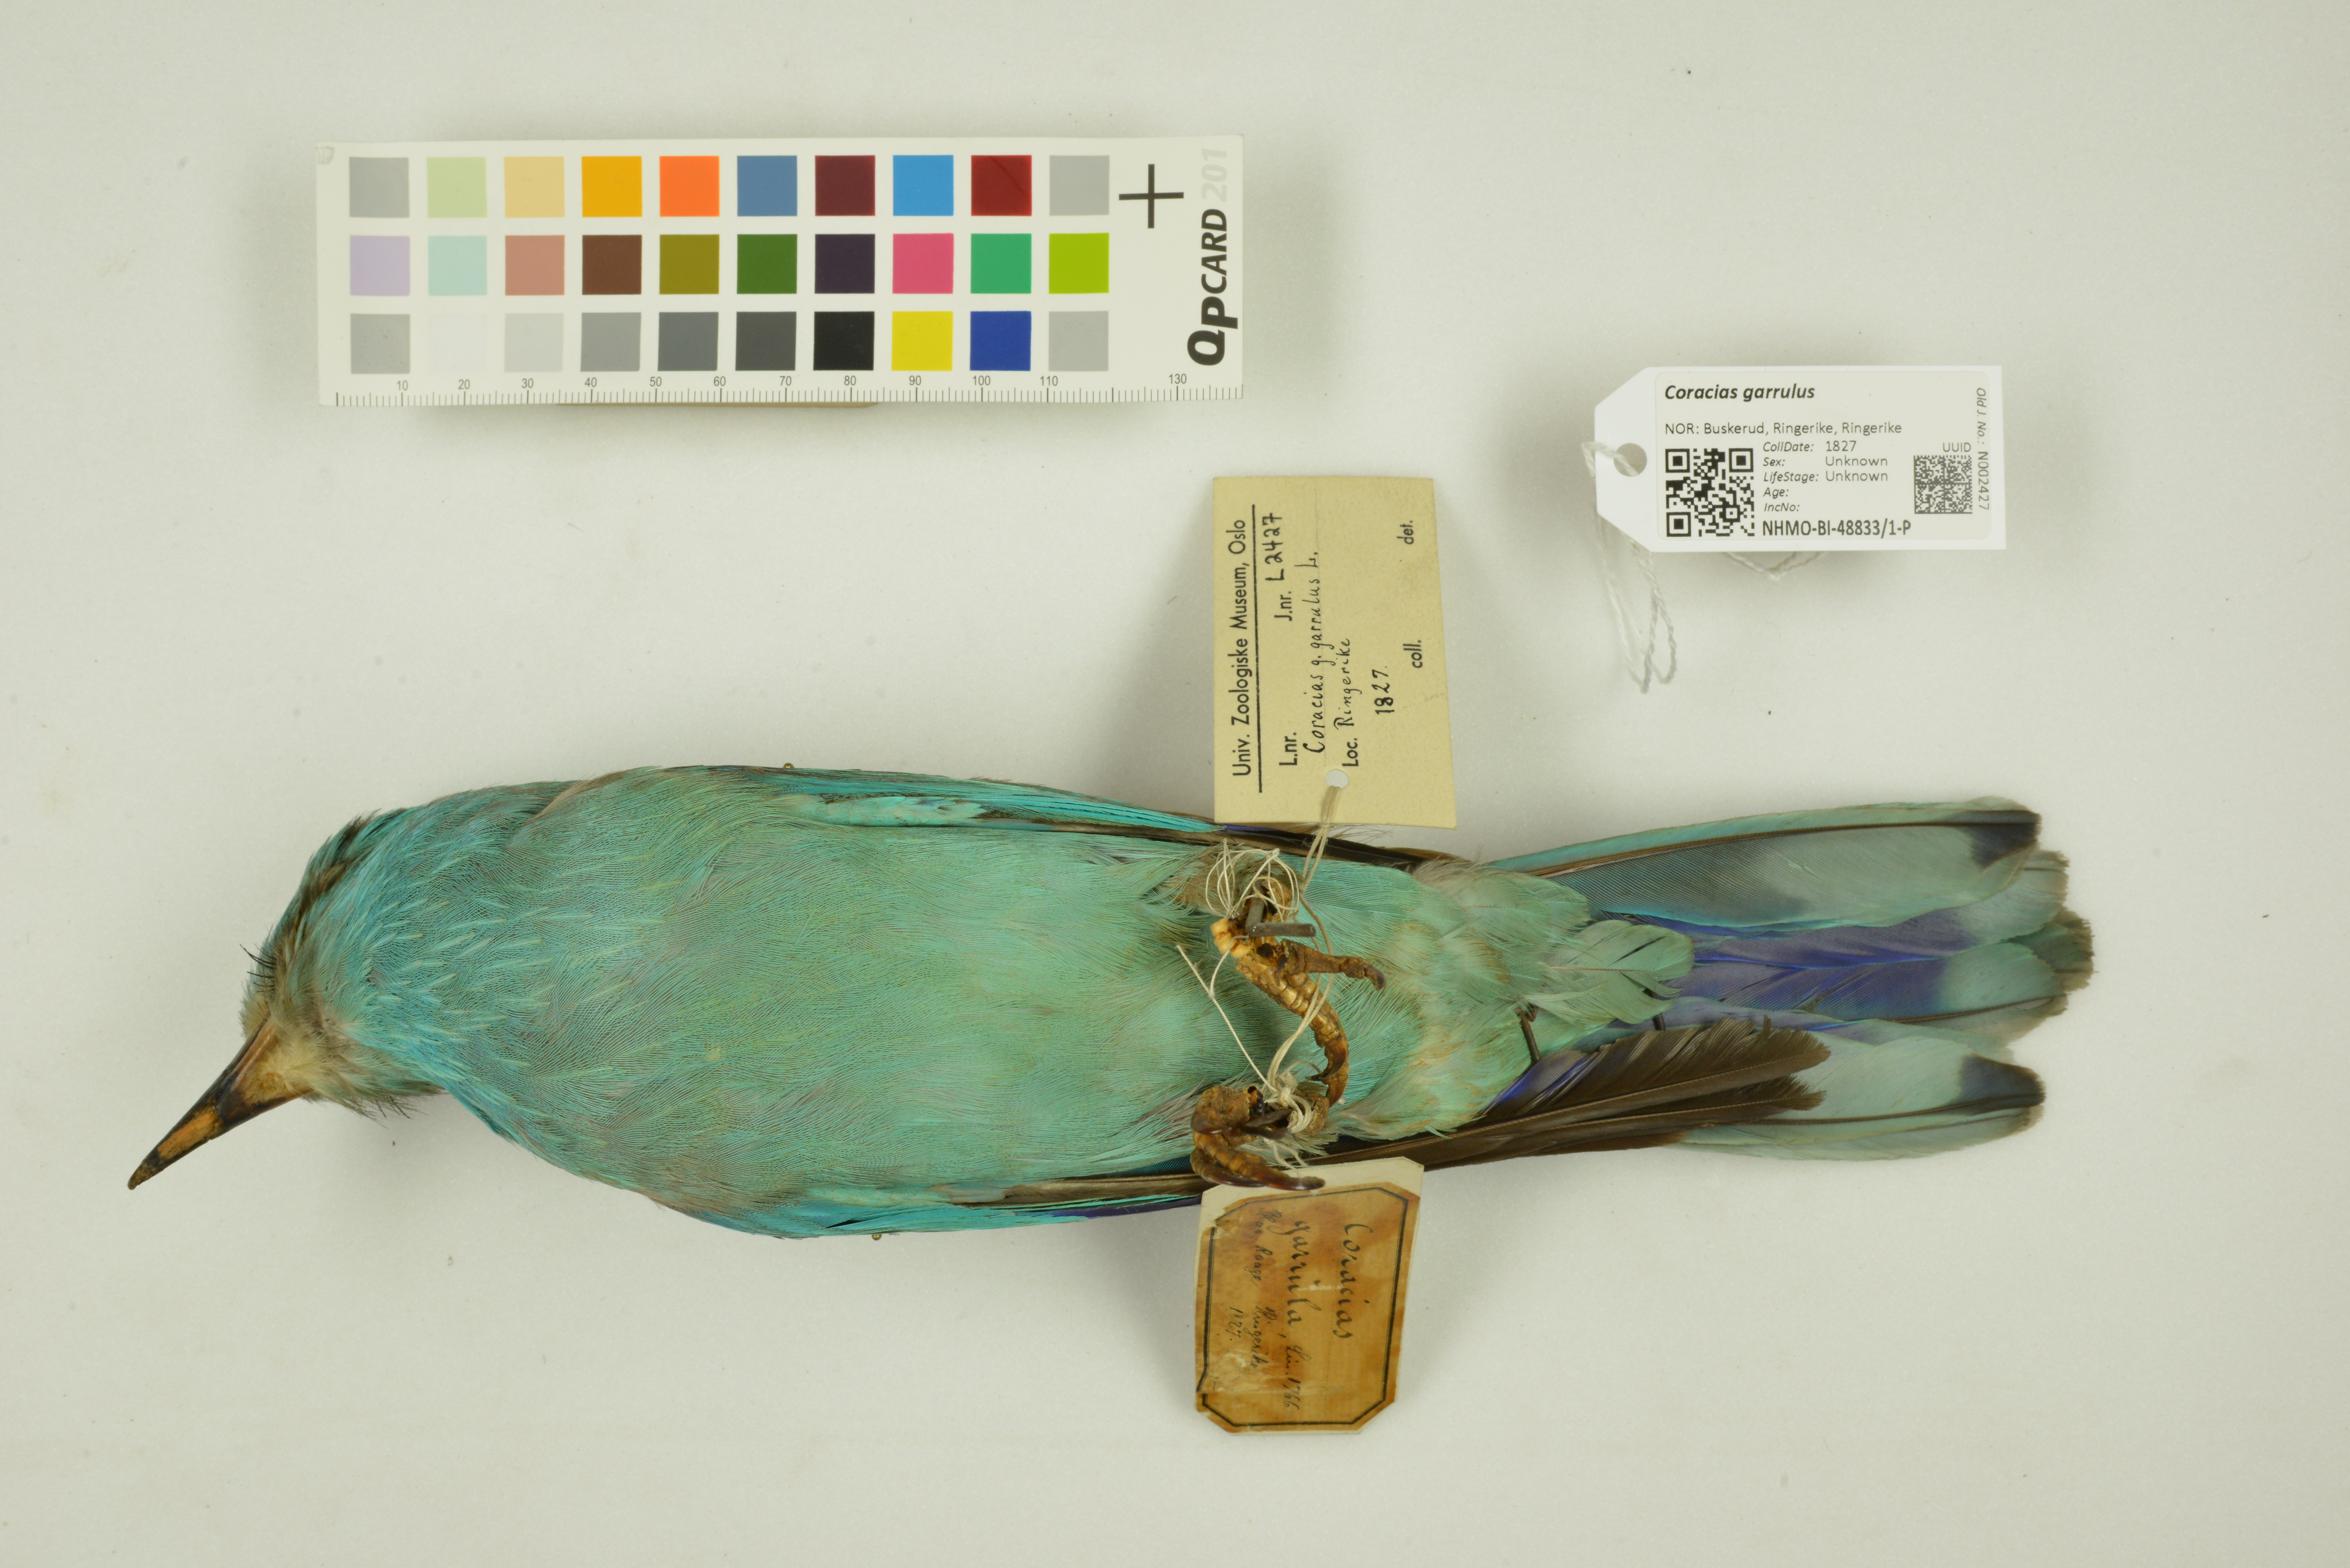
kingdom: Animalia
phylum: Chordata
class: Aves
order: Coraciiformes
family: Coraciidae
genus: Coracias
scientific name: Coracias garrulus
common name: European roller
